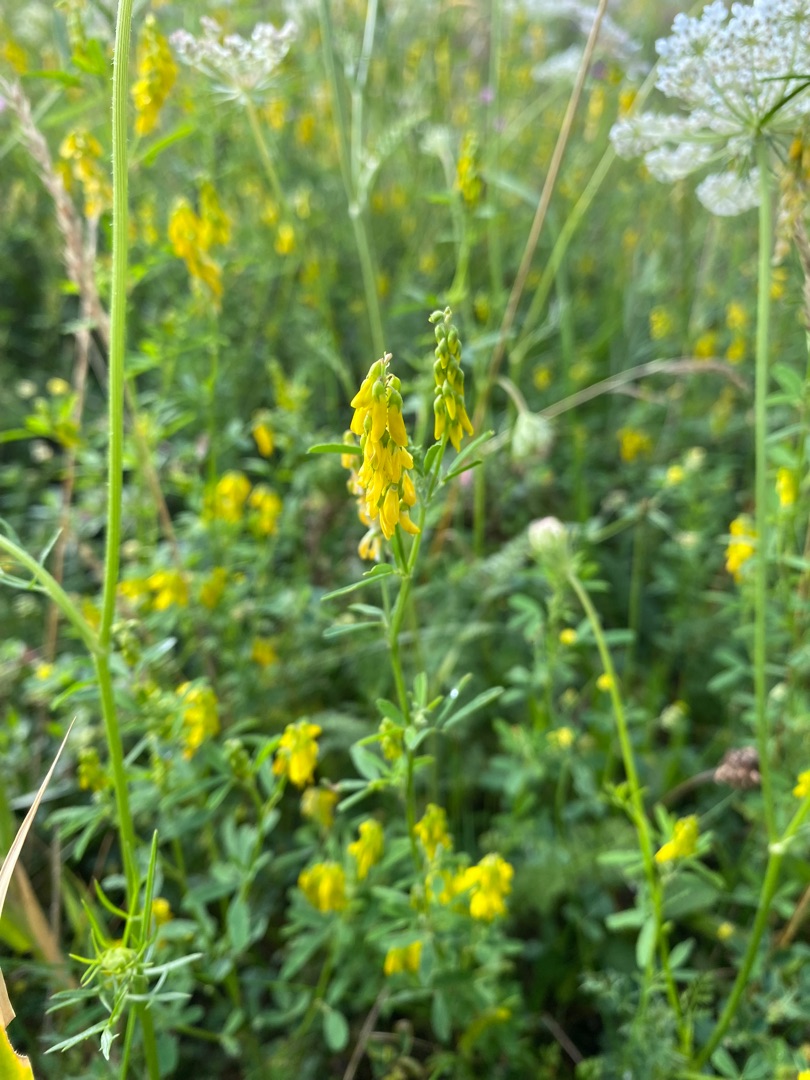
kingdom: Plantae
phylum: Tracheophyta
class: Magnoliopsida
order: Fabales
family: Fabaceae
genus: Melilotus
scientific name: Melilotus
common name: Stenkløverslægten
